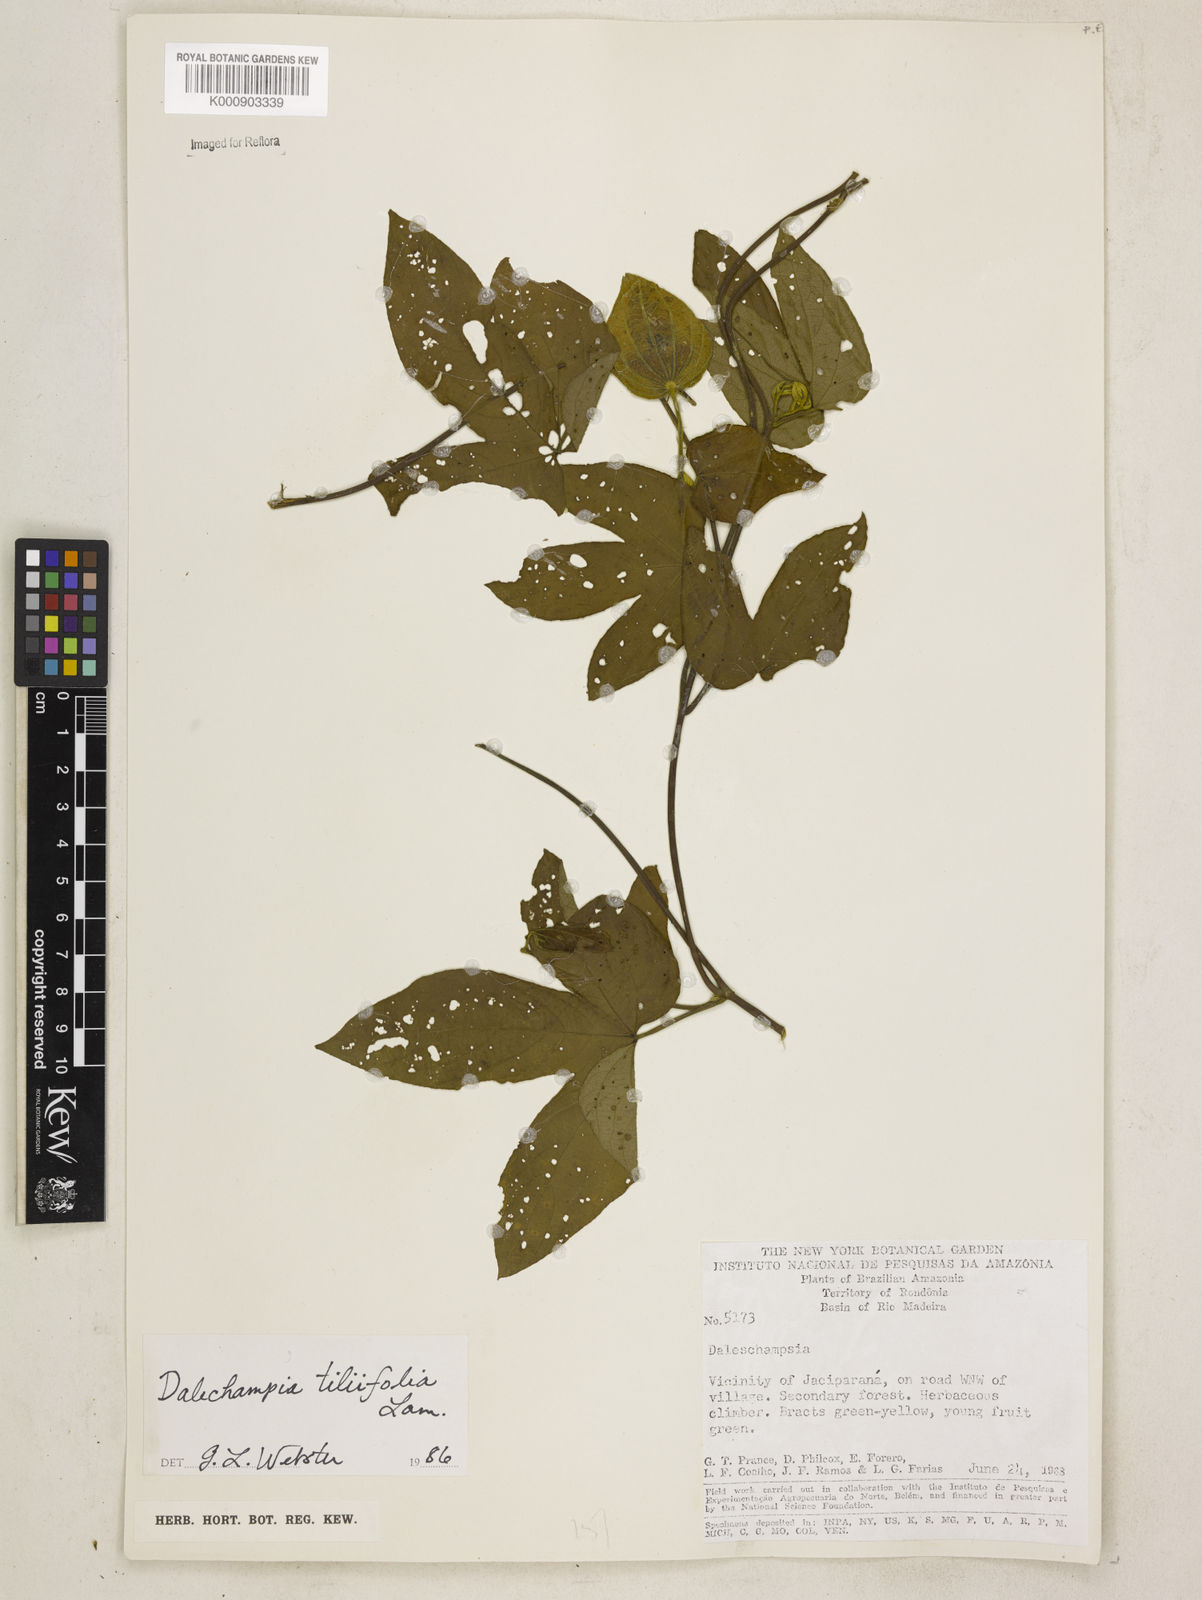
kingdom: Plantae
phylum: Tracheophyta
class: Magnoliopsida
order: Malpighiales
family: Euphorbiaceae
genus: Dalechampia
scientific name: Dalechampia tiliifolia
